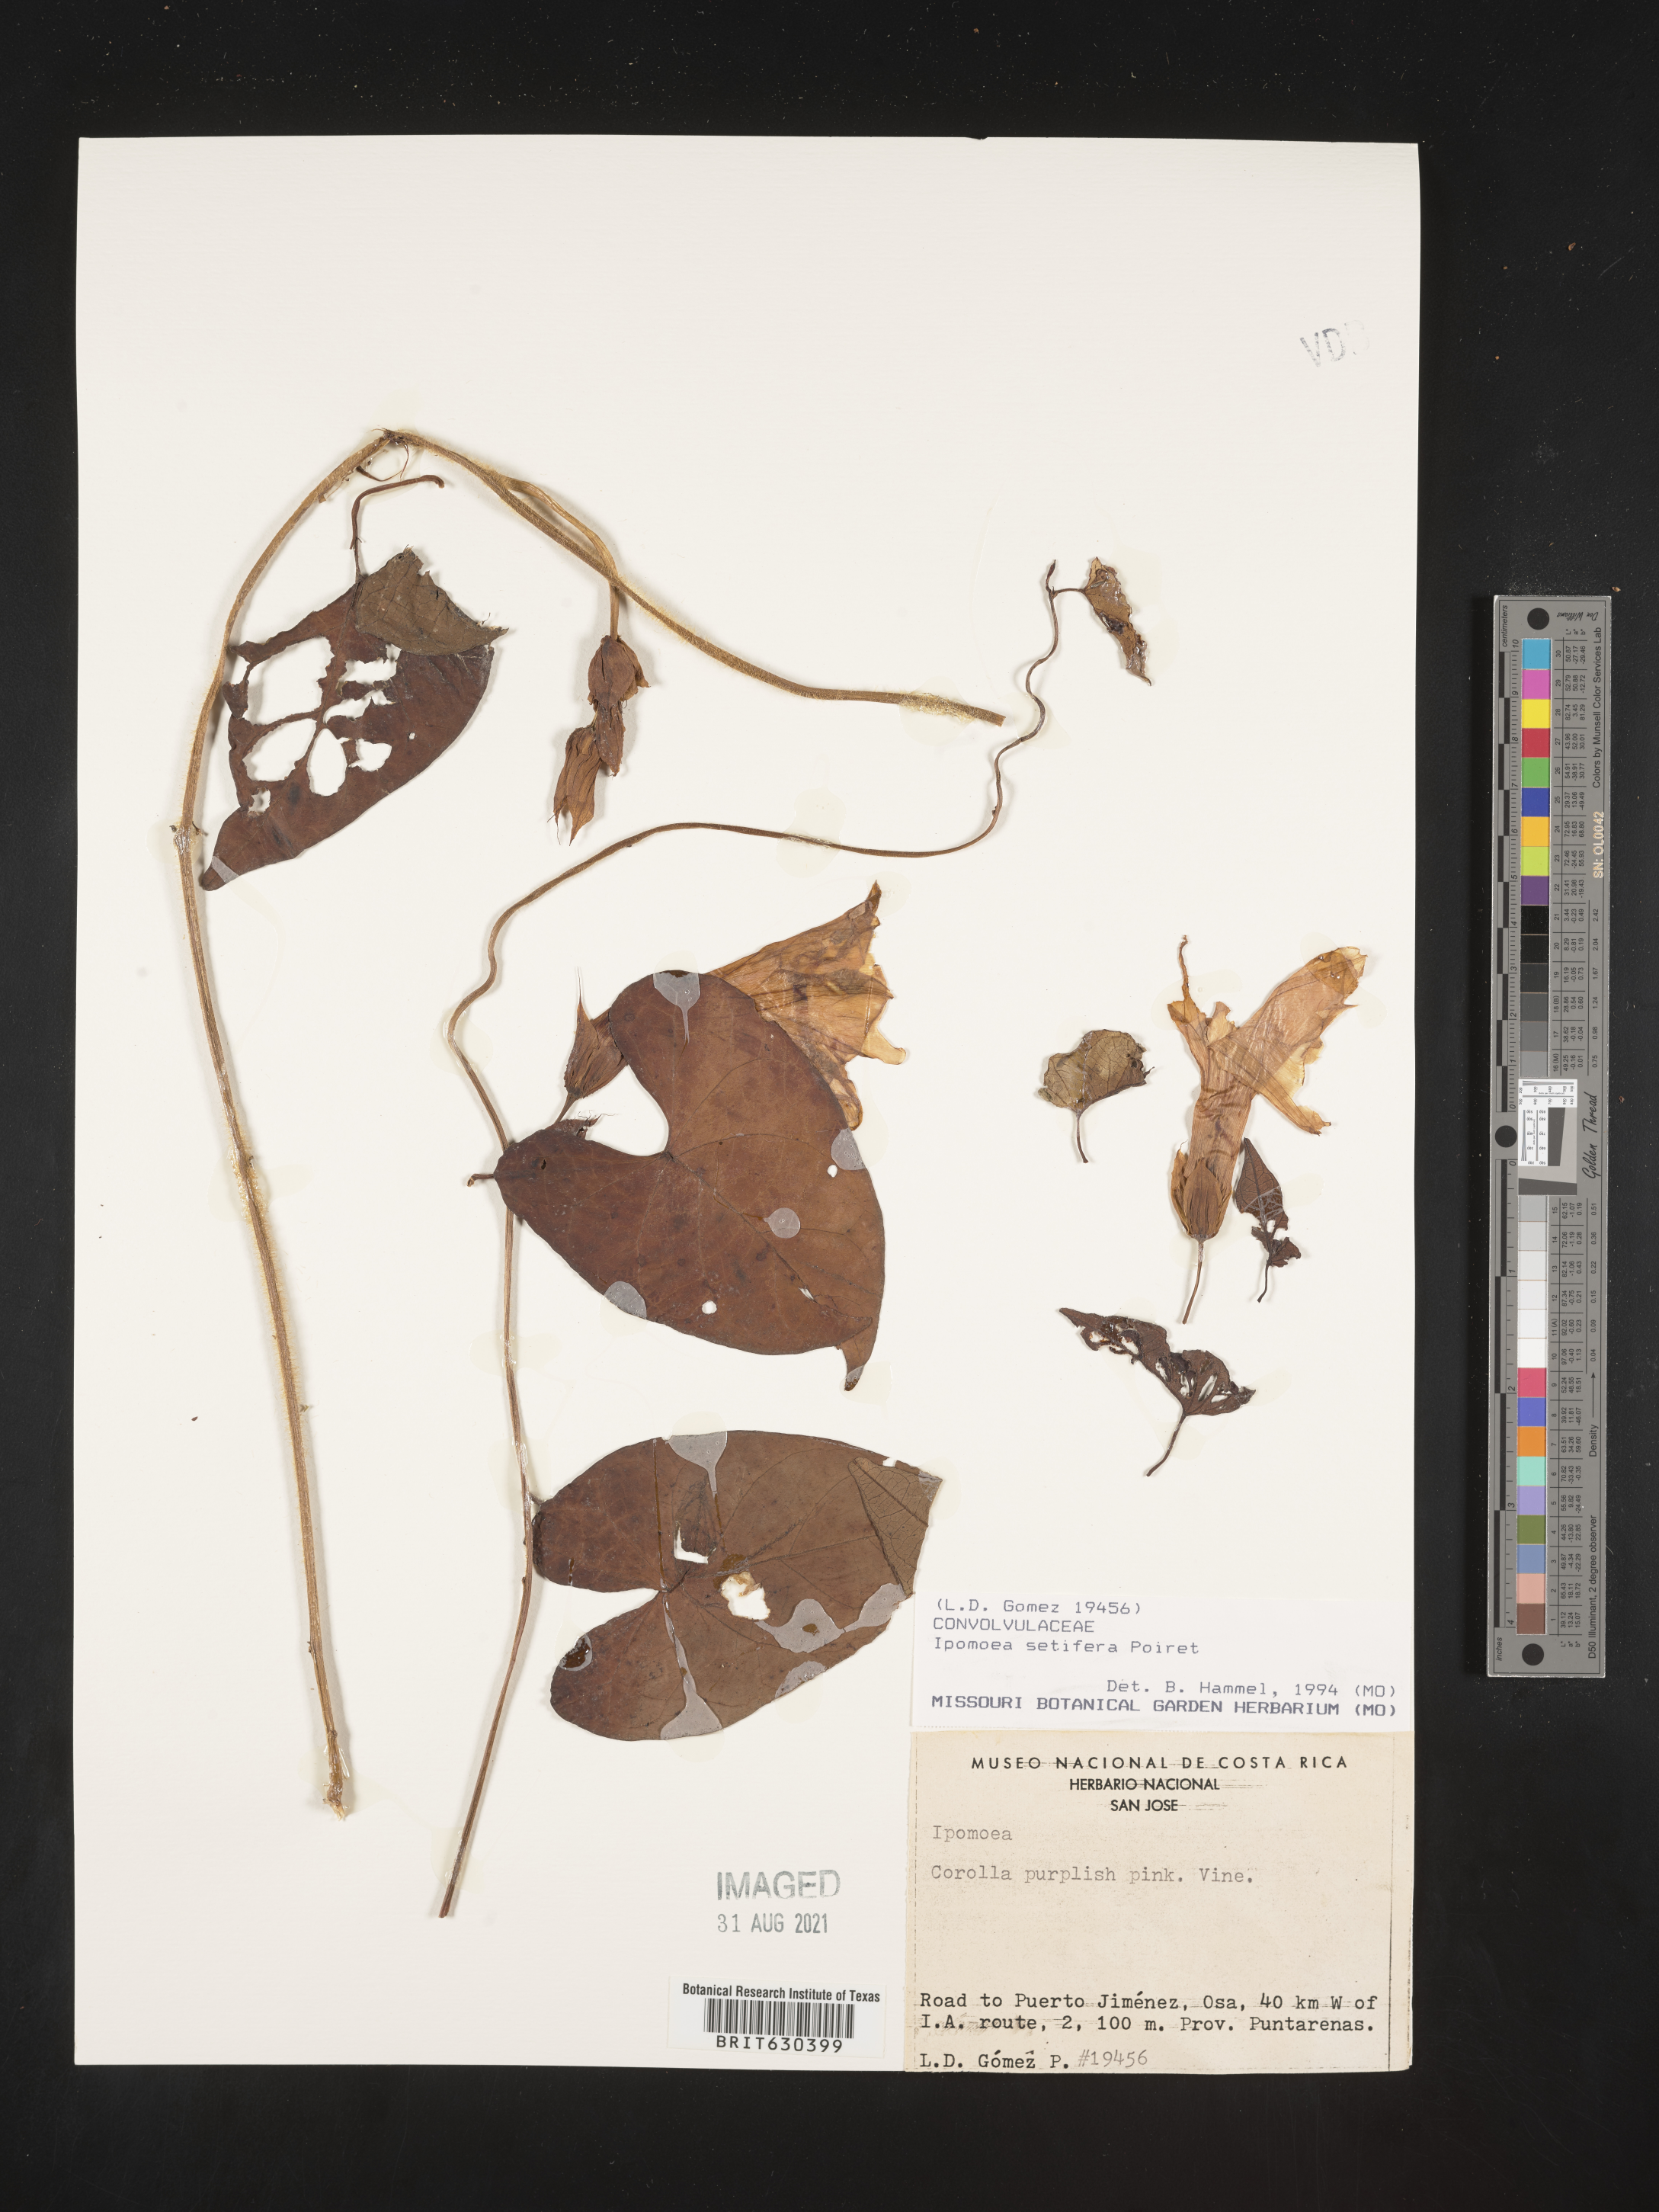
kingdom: Plantae
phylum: Tracheophyta
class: Magnoliopsida
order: Solanales
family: Convolvulaceae
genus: Ipomoea
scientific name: Ipomoea setifera
